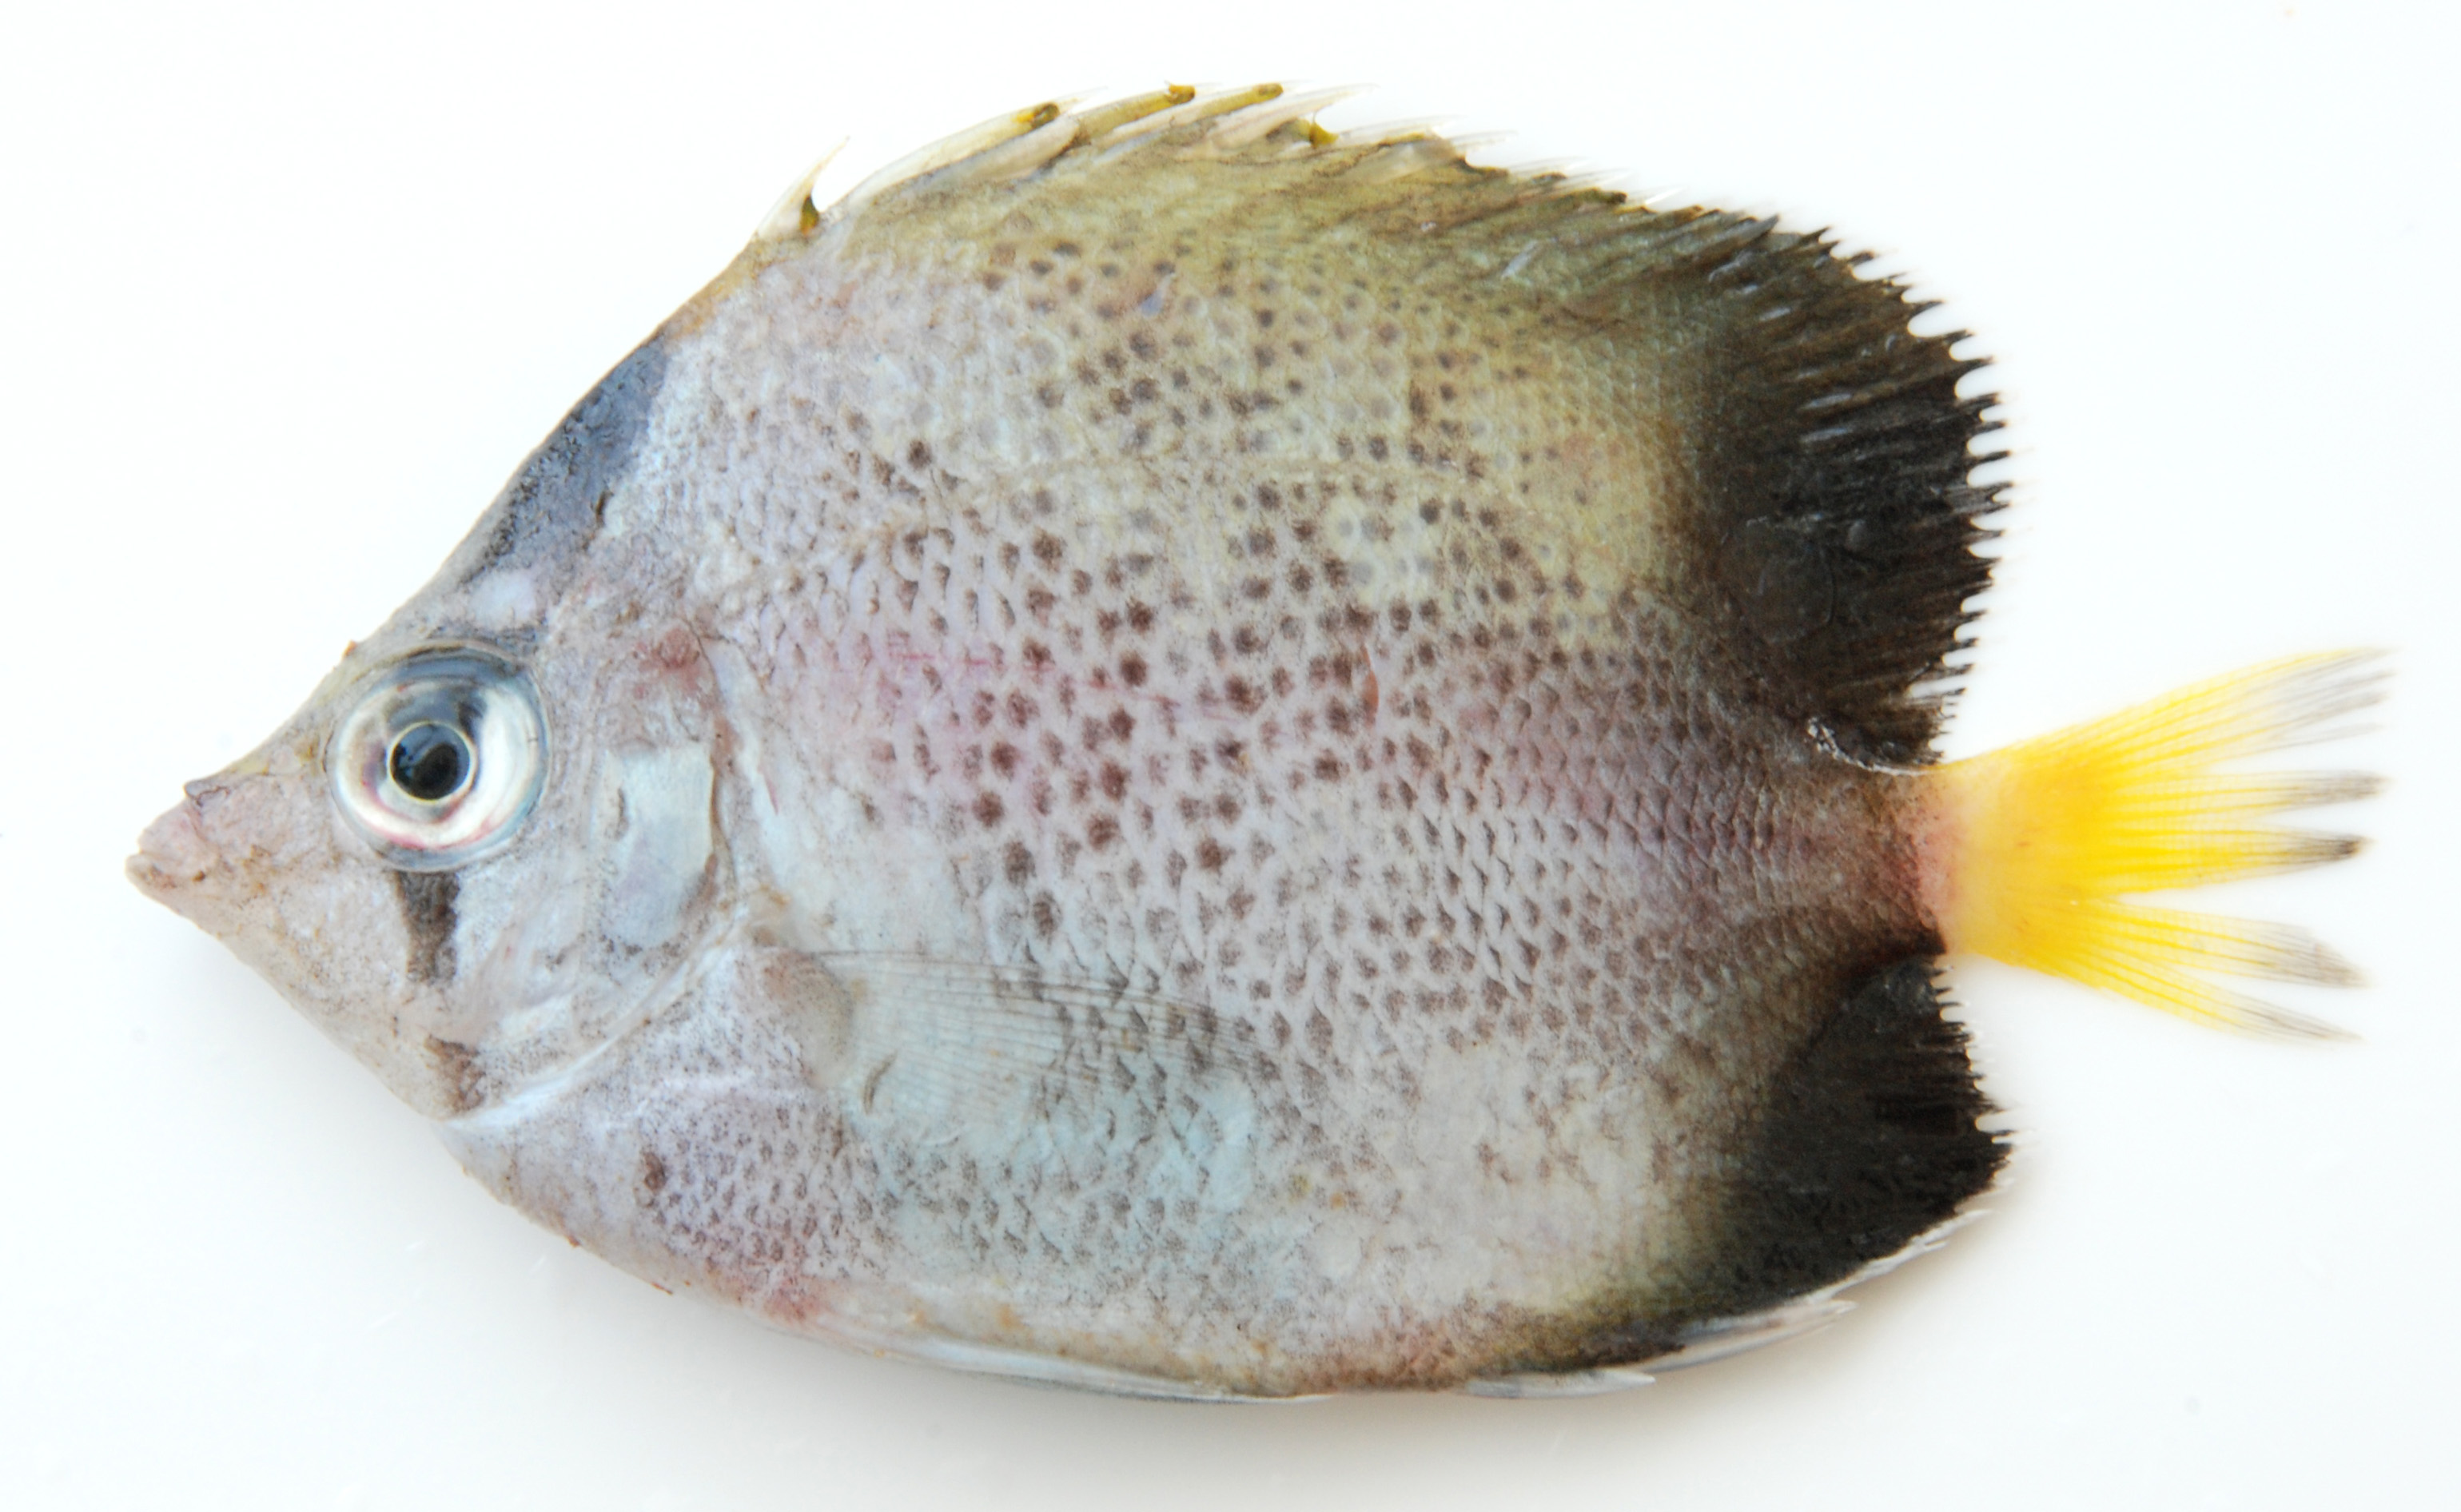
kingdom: Animalia
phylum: Chordata
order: Perciformes
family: Chaetodontidae
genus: Chaetodon
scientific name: Chaetodon dolosus
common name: African butterflyfish
